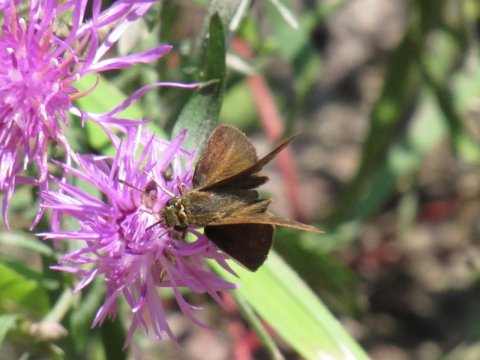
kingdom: Animalia
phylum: Arthropoda
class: Insecta
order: Lepidoptera
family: Hesperiidae
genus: Euphyes
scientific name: Euphyes vestris
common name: Dun Skipper
